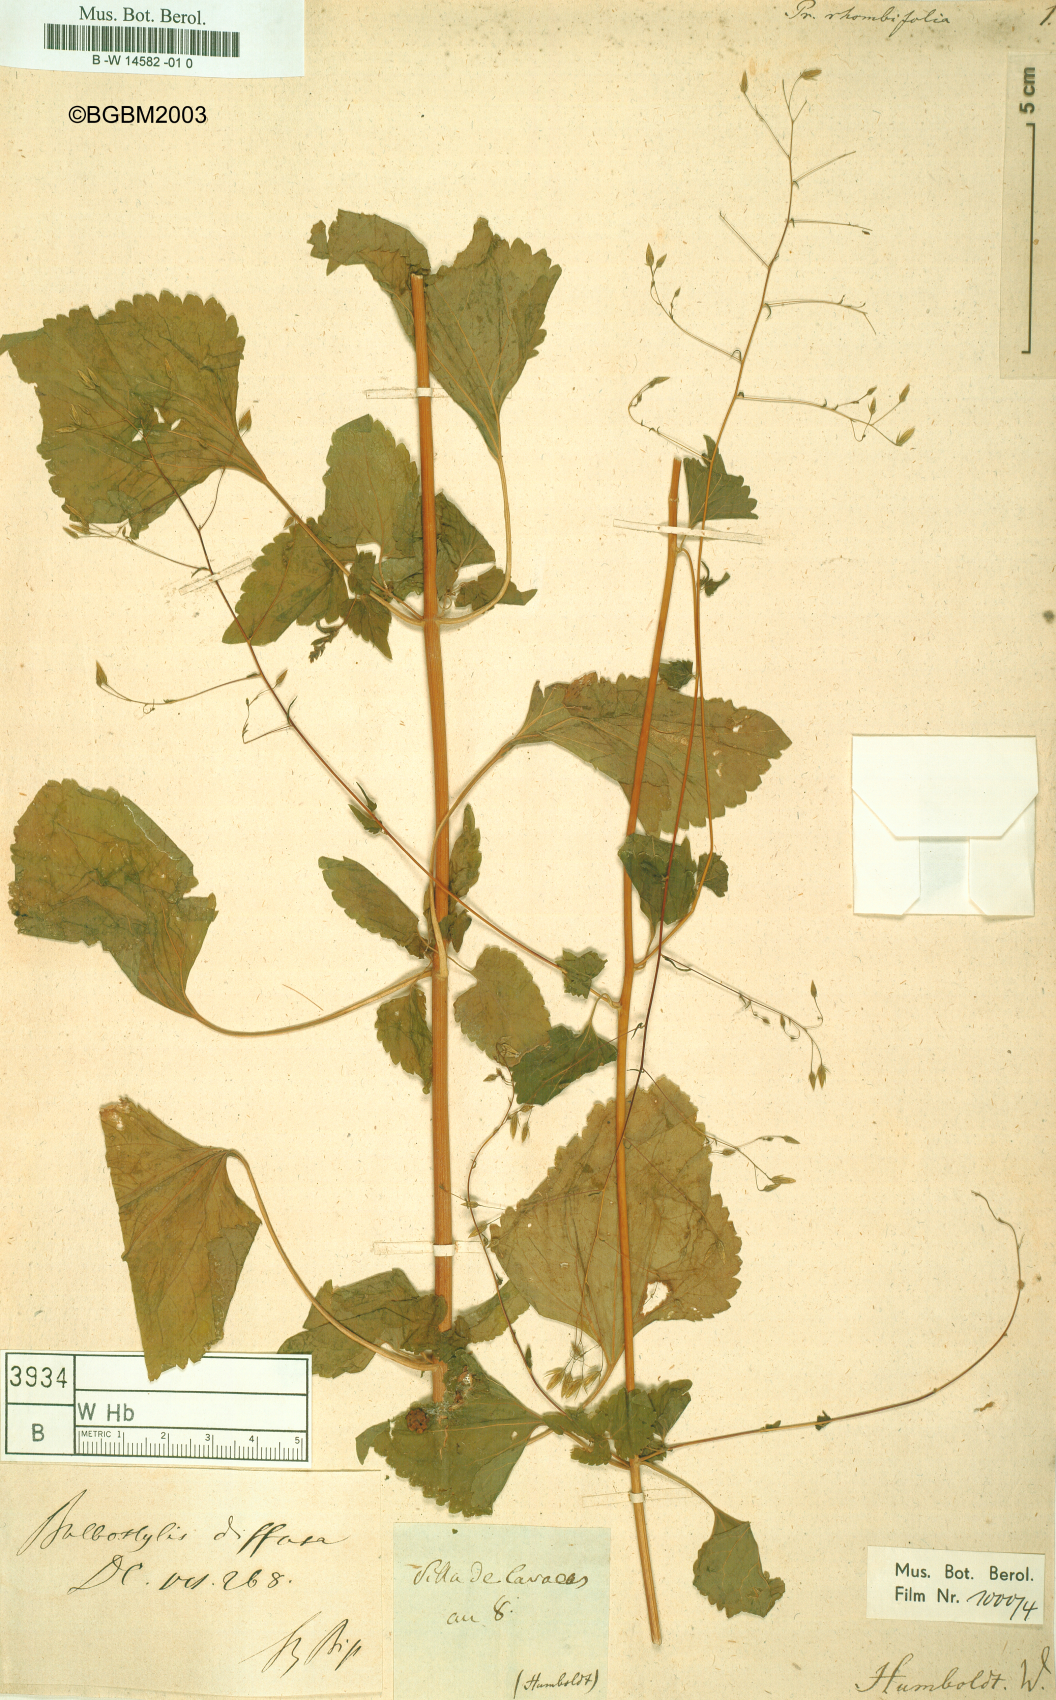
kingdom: Plantae
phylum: Tracheophyta
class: Magnoliopsida
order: Asterales
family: Asteraceae
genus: Brickellia
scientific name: Brickellia diffusa
